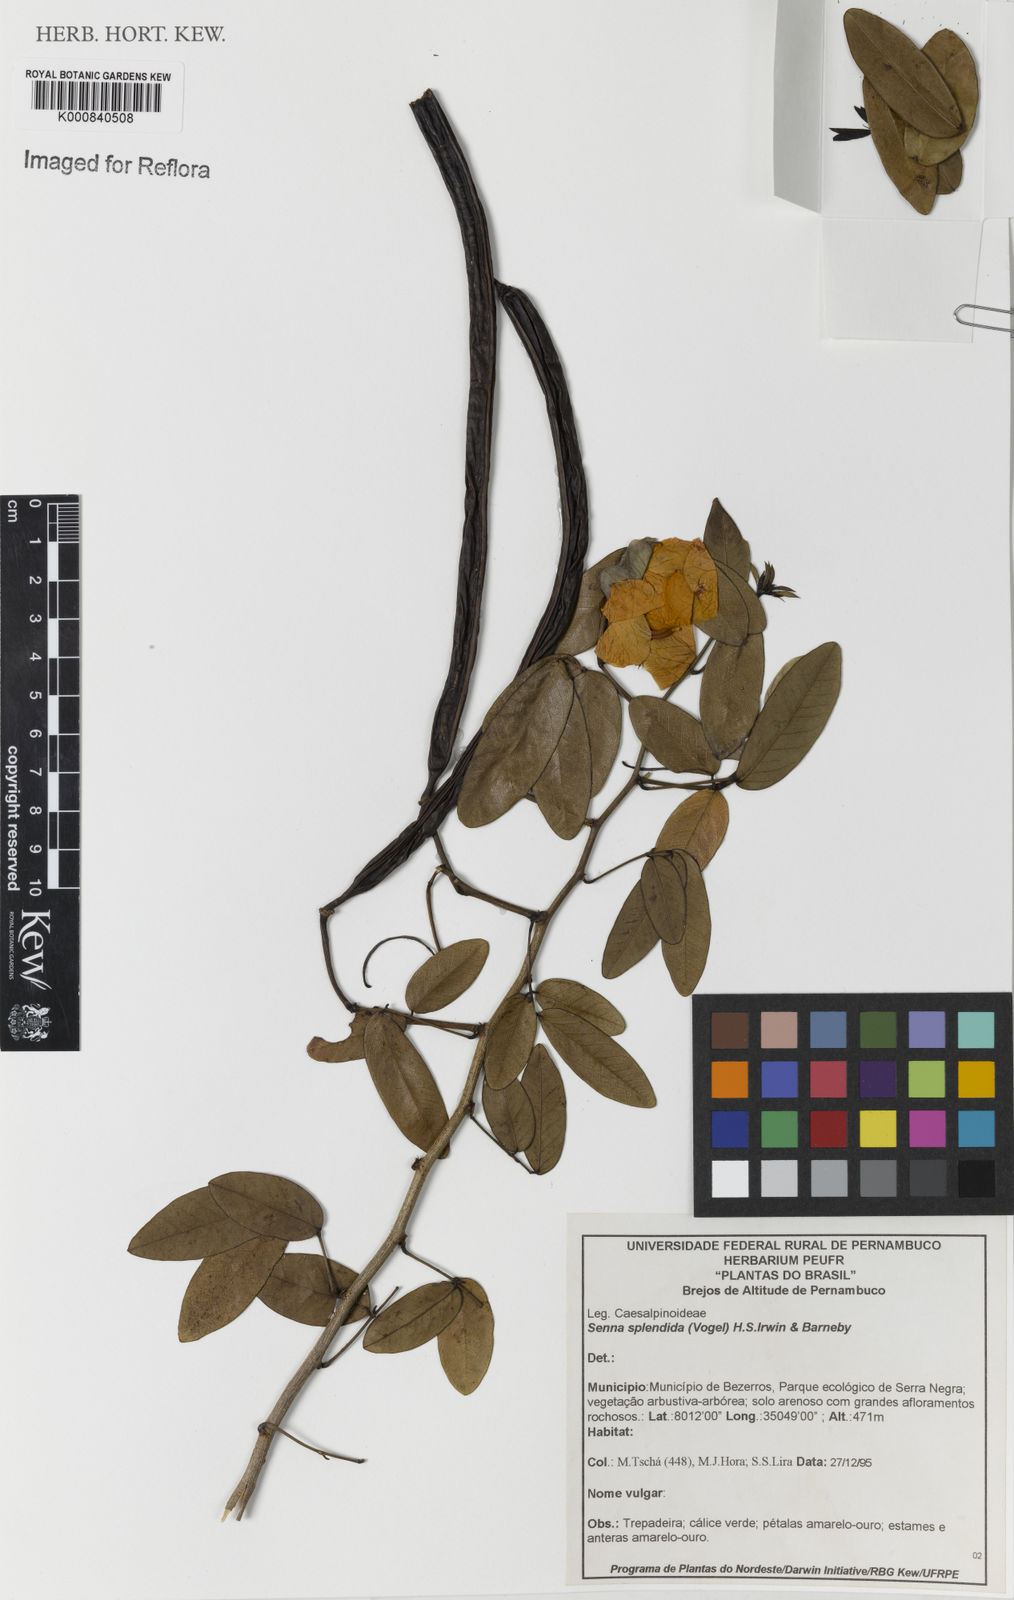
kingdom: Plantae
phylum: Tracheophyta
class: Magnoliopsida
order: Fabales
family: Fabaceae
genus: Senna
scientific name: Senna splendida
